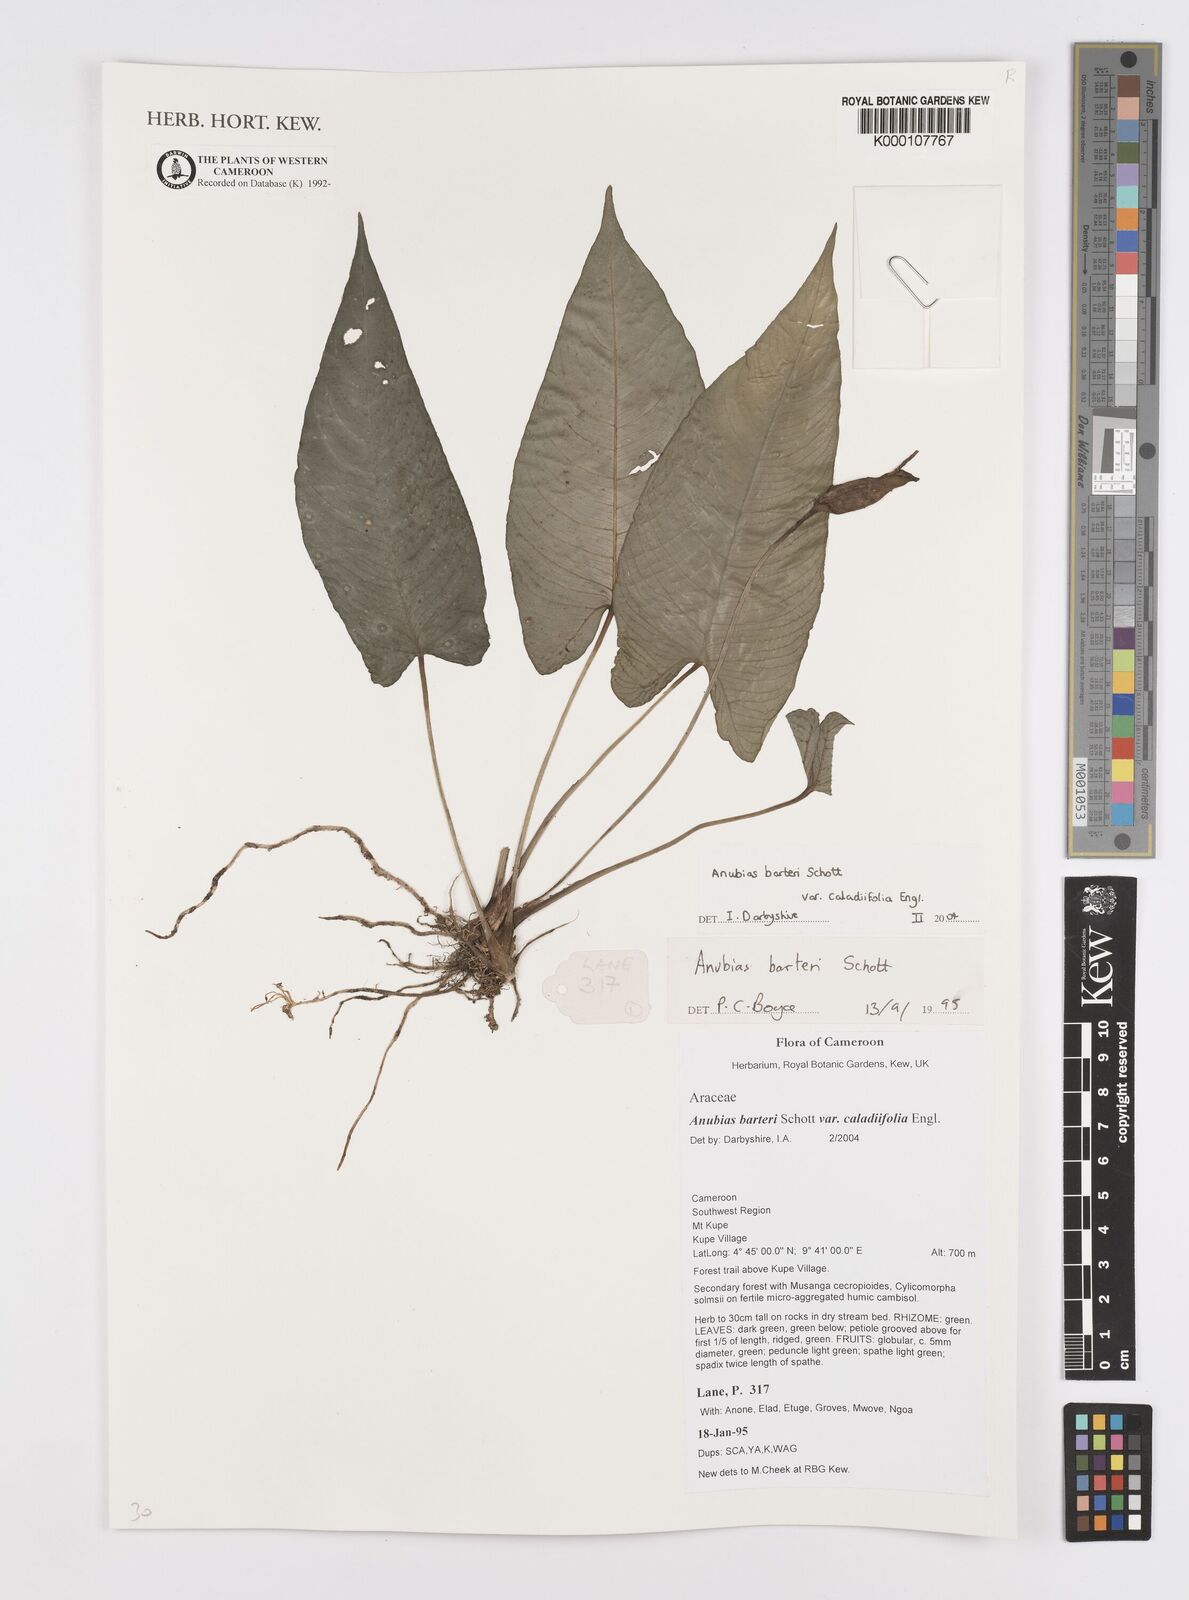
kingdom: Plantae
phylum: Tracheophyta
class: Liliopsida
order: Alismatales
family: Araceae
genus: Anubias
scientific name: Anubias barteri
